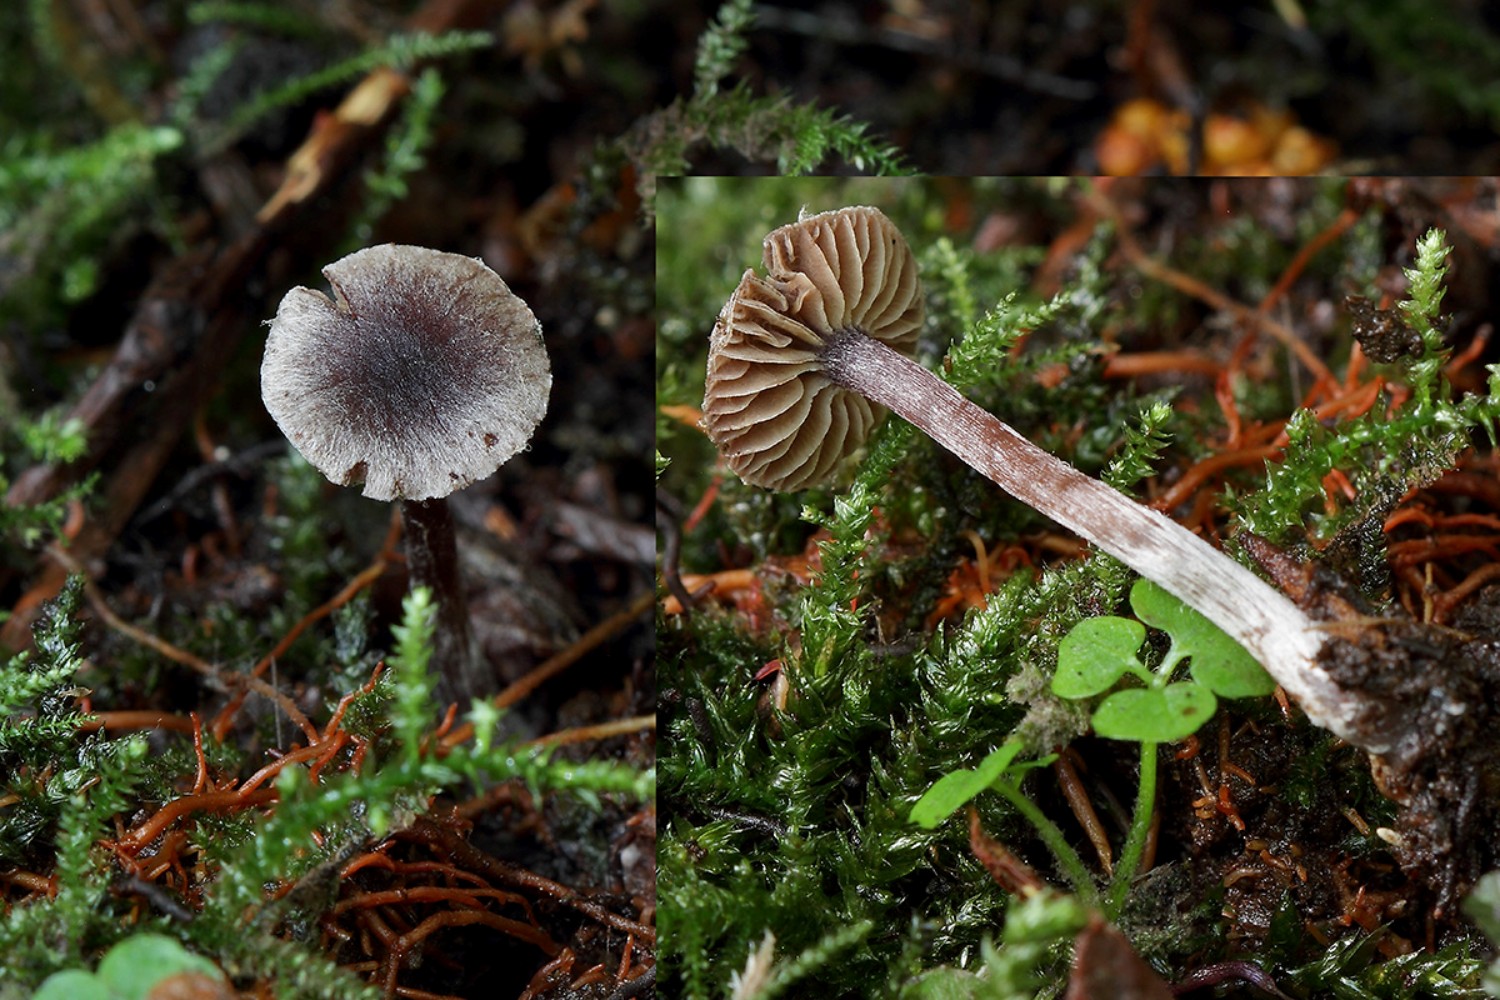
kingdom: Fungi
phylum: Basidiomycota
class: Agaricomycetes
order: Agaricales
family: Cortinariaceae
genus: Cortinarius
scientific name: Cortinarius americanus
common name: natsort slørhat
